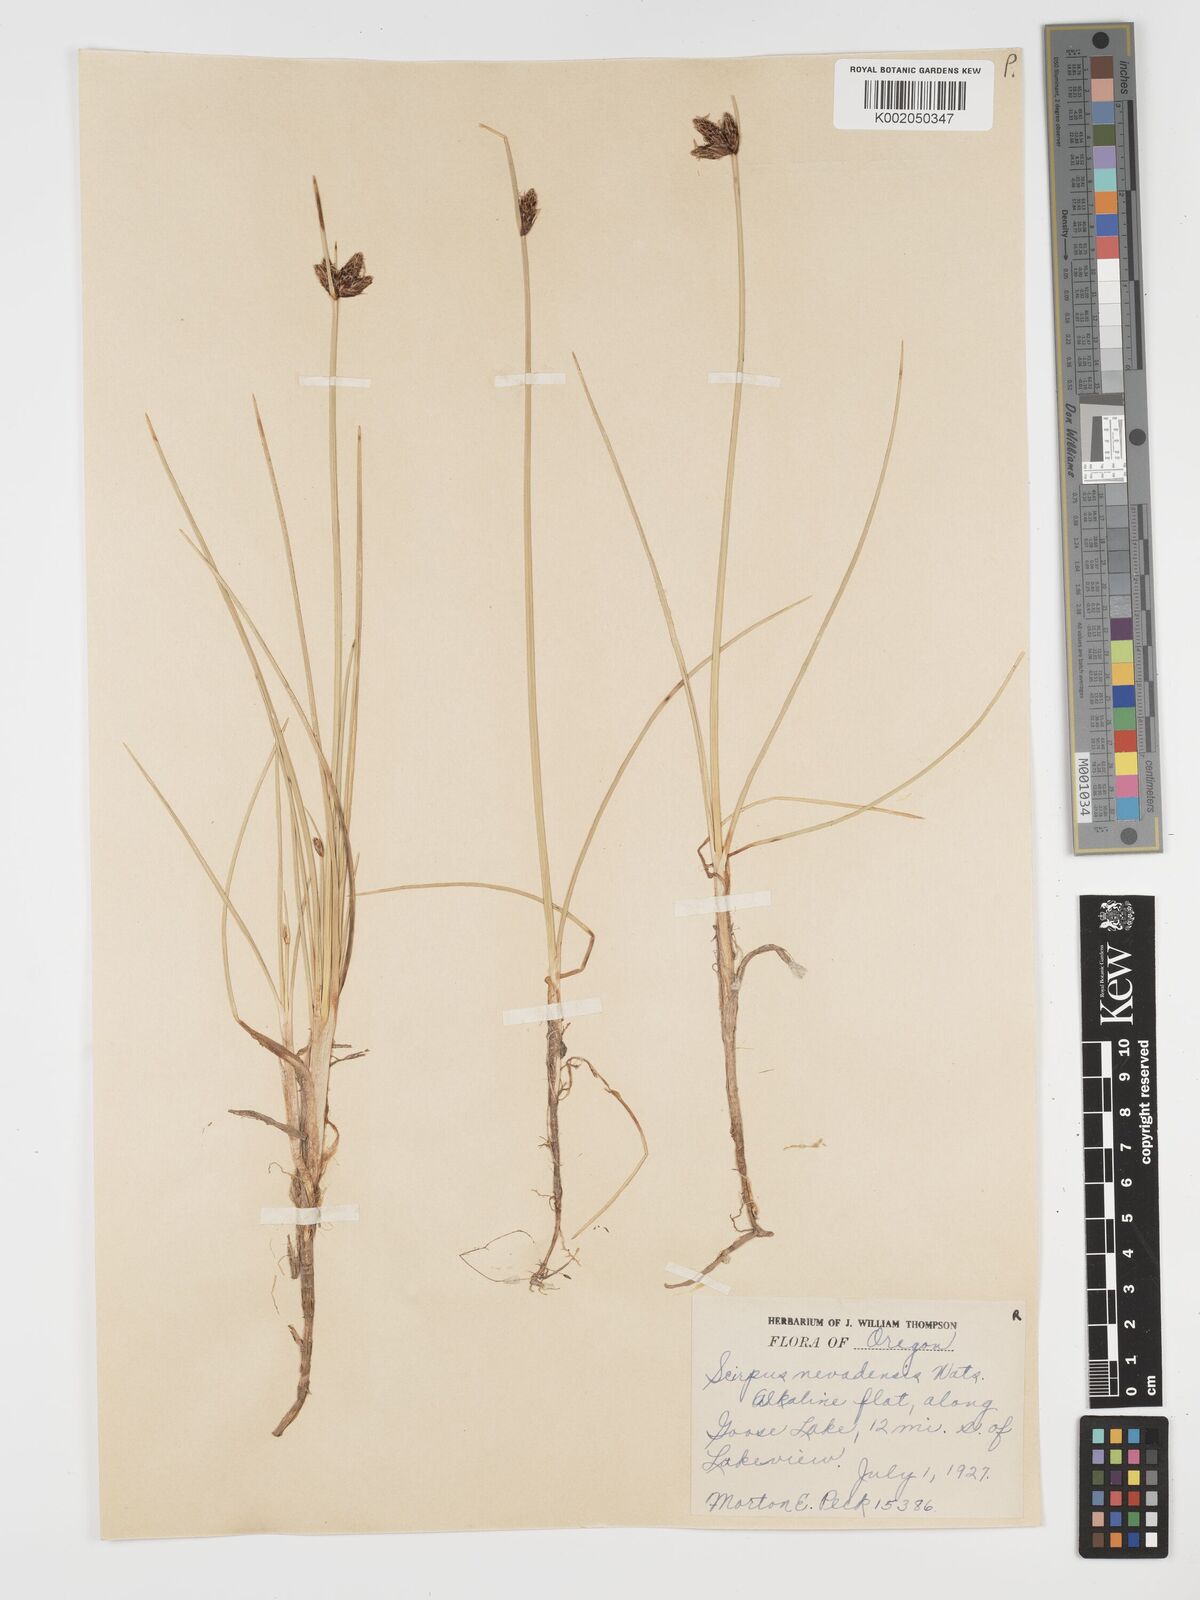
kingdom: Plantae
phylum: Tracheophyta
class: Liliopsida
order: Poales
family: Cyperaceae
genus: Amphiscirpus
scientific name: Amphiscirpus nevadensis
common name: Nevada bulrush
